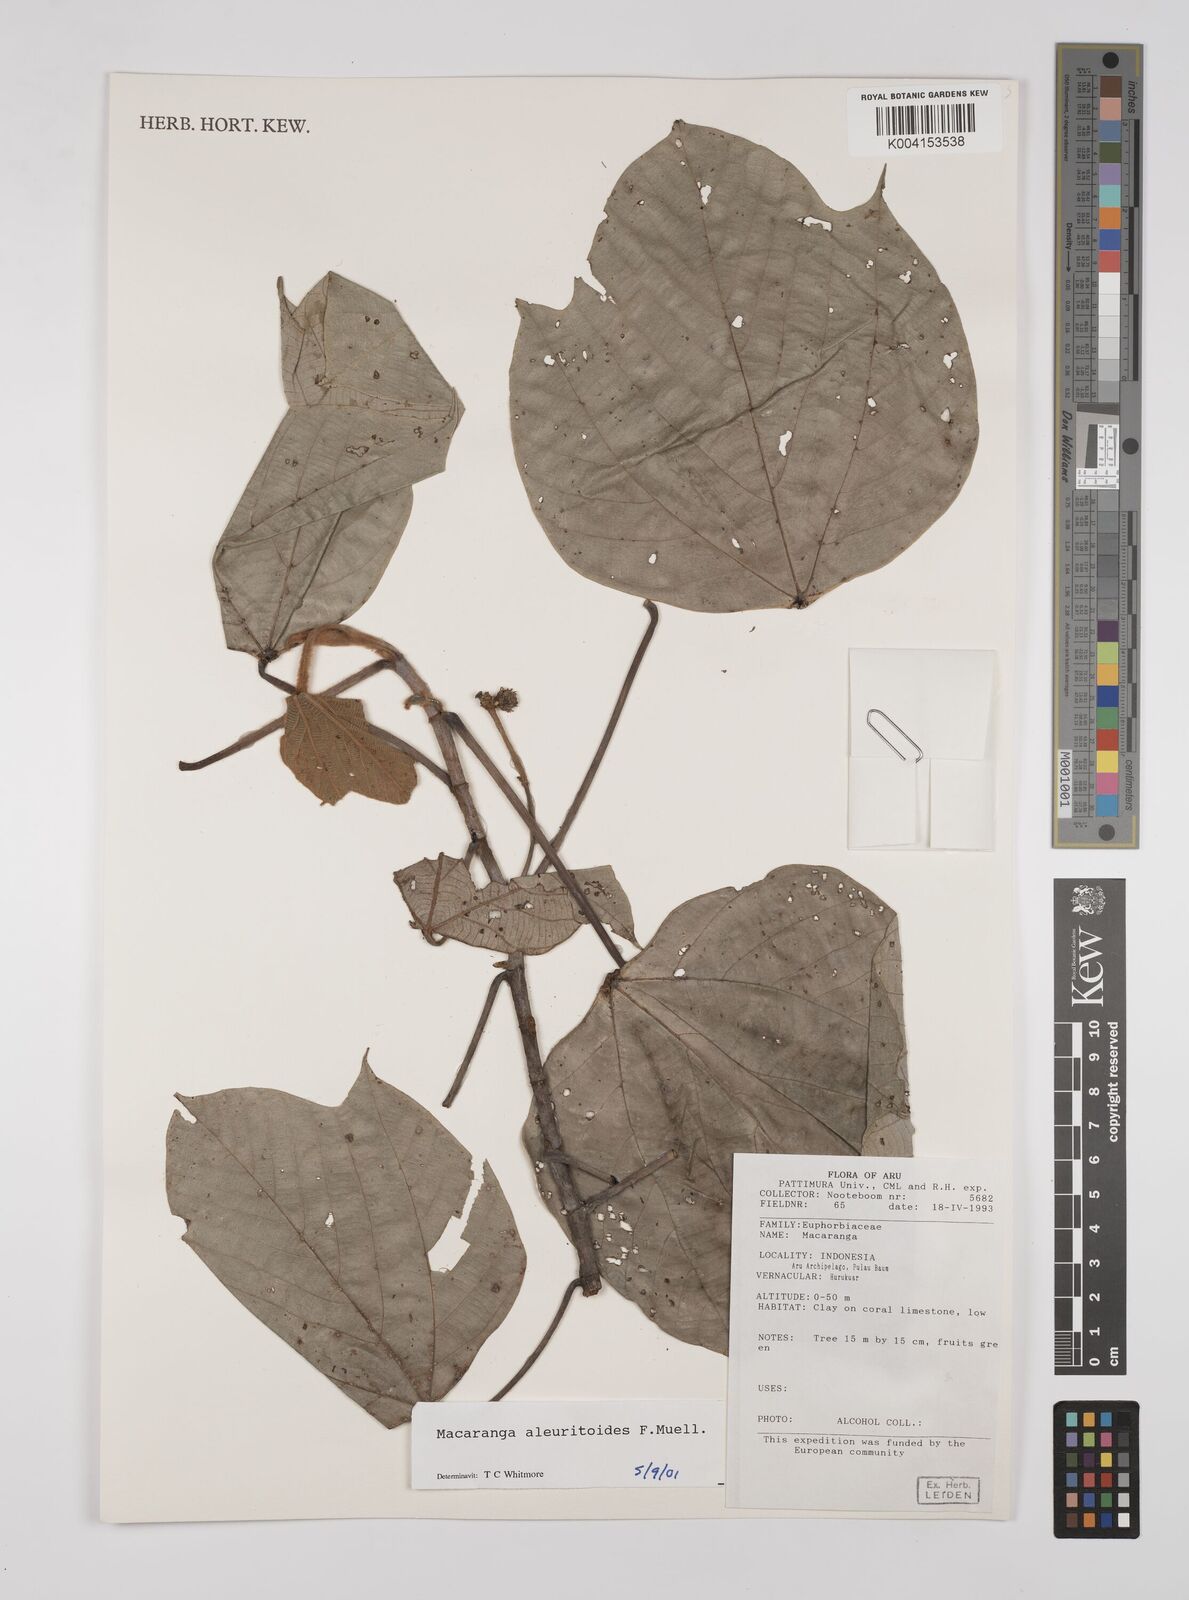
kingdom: Plantae
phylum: Tracheophyta
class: Magnoliopsida
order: Malpighiales
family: Euphorbiaceae
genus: Macaranga
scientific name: Macaranga aleuritoides
